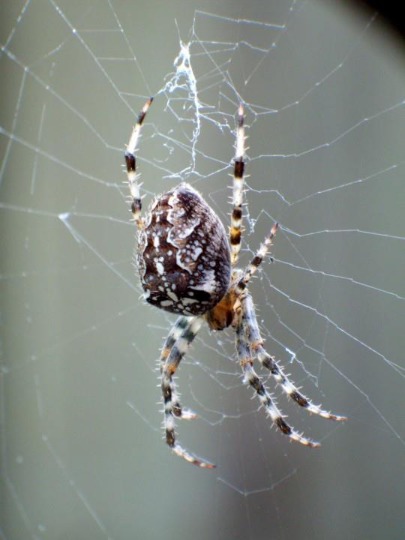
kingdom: Animalia
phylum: Arthropoda
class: Arachnida
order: Araneae
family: Araneidae
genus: Araneus
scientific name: Araneus diadematus
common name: Korsedderkop
